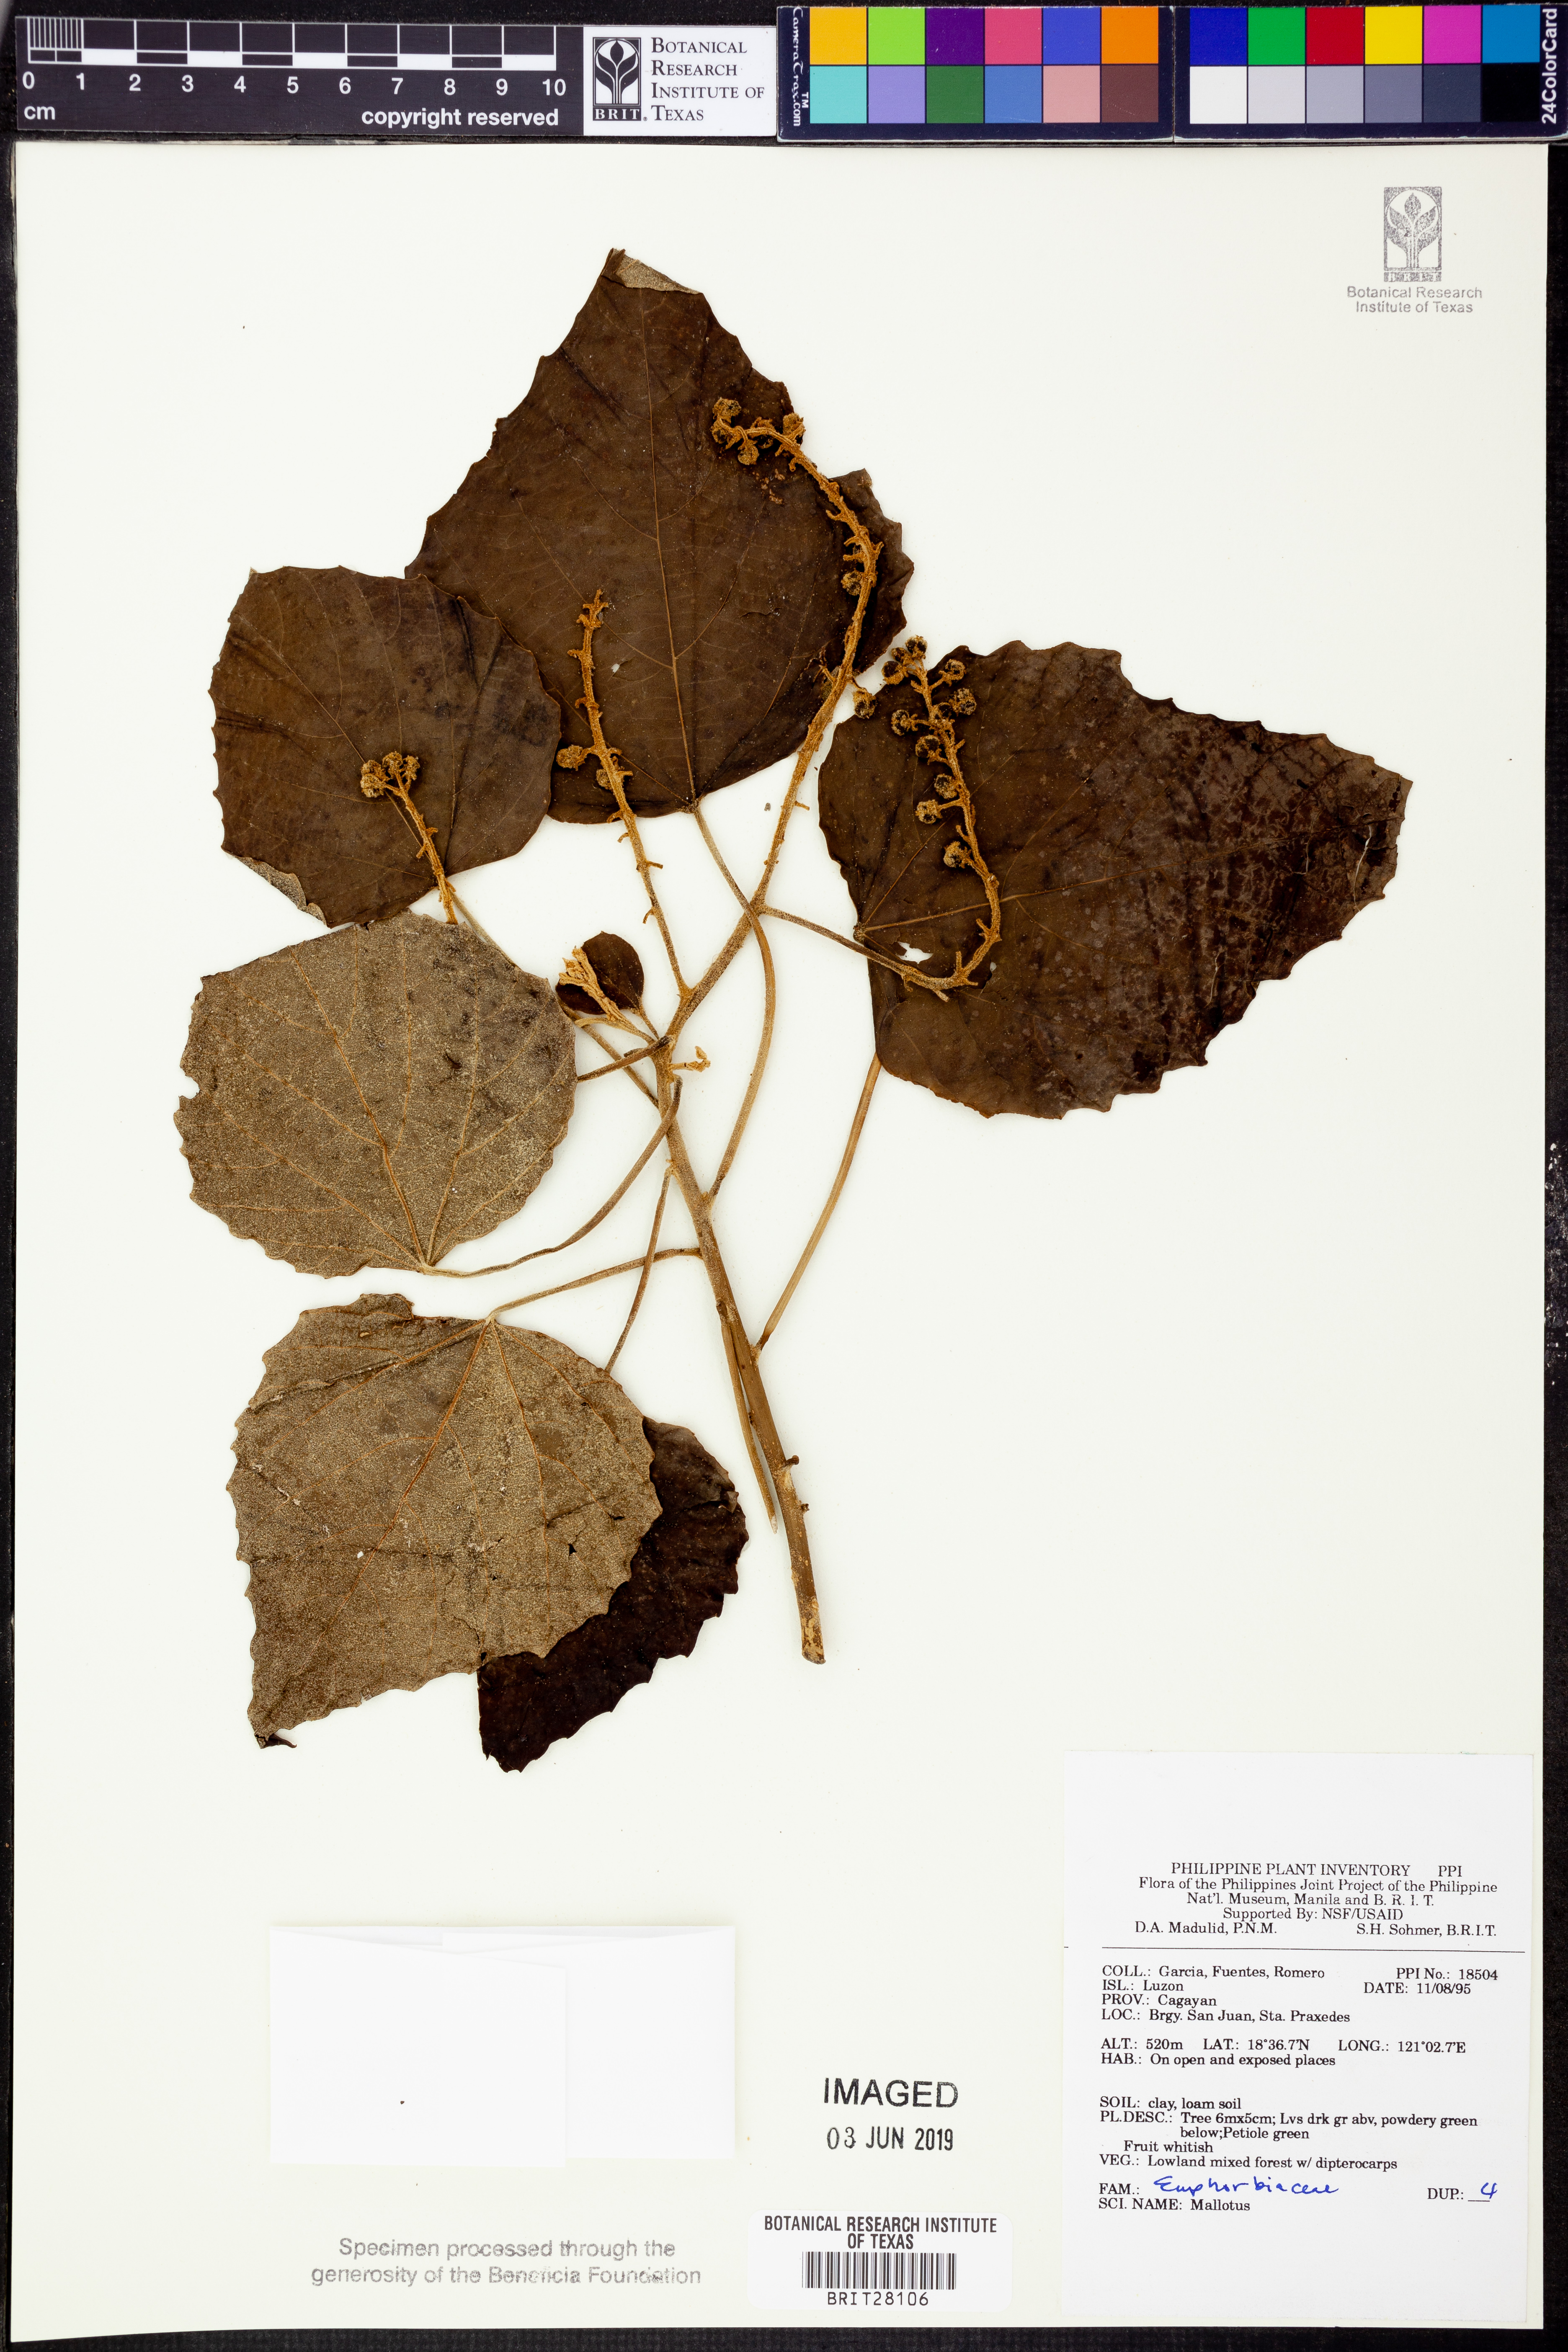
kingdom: Plantae
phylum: Tracheophyta
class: Magnoliopsida
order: Malpighiales
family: Euphorbiaceae
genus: Mallotus
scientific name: Mallotus
